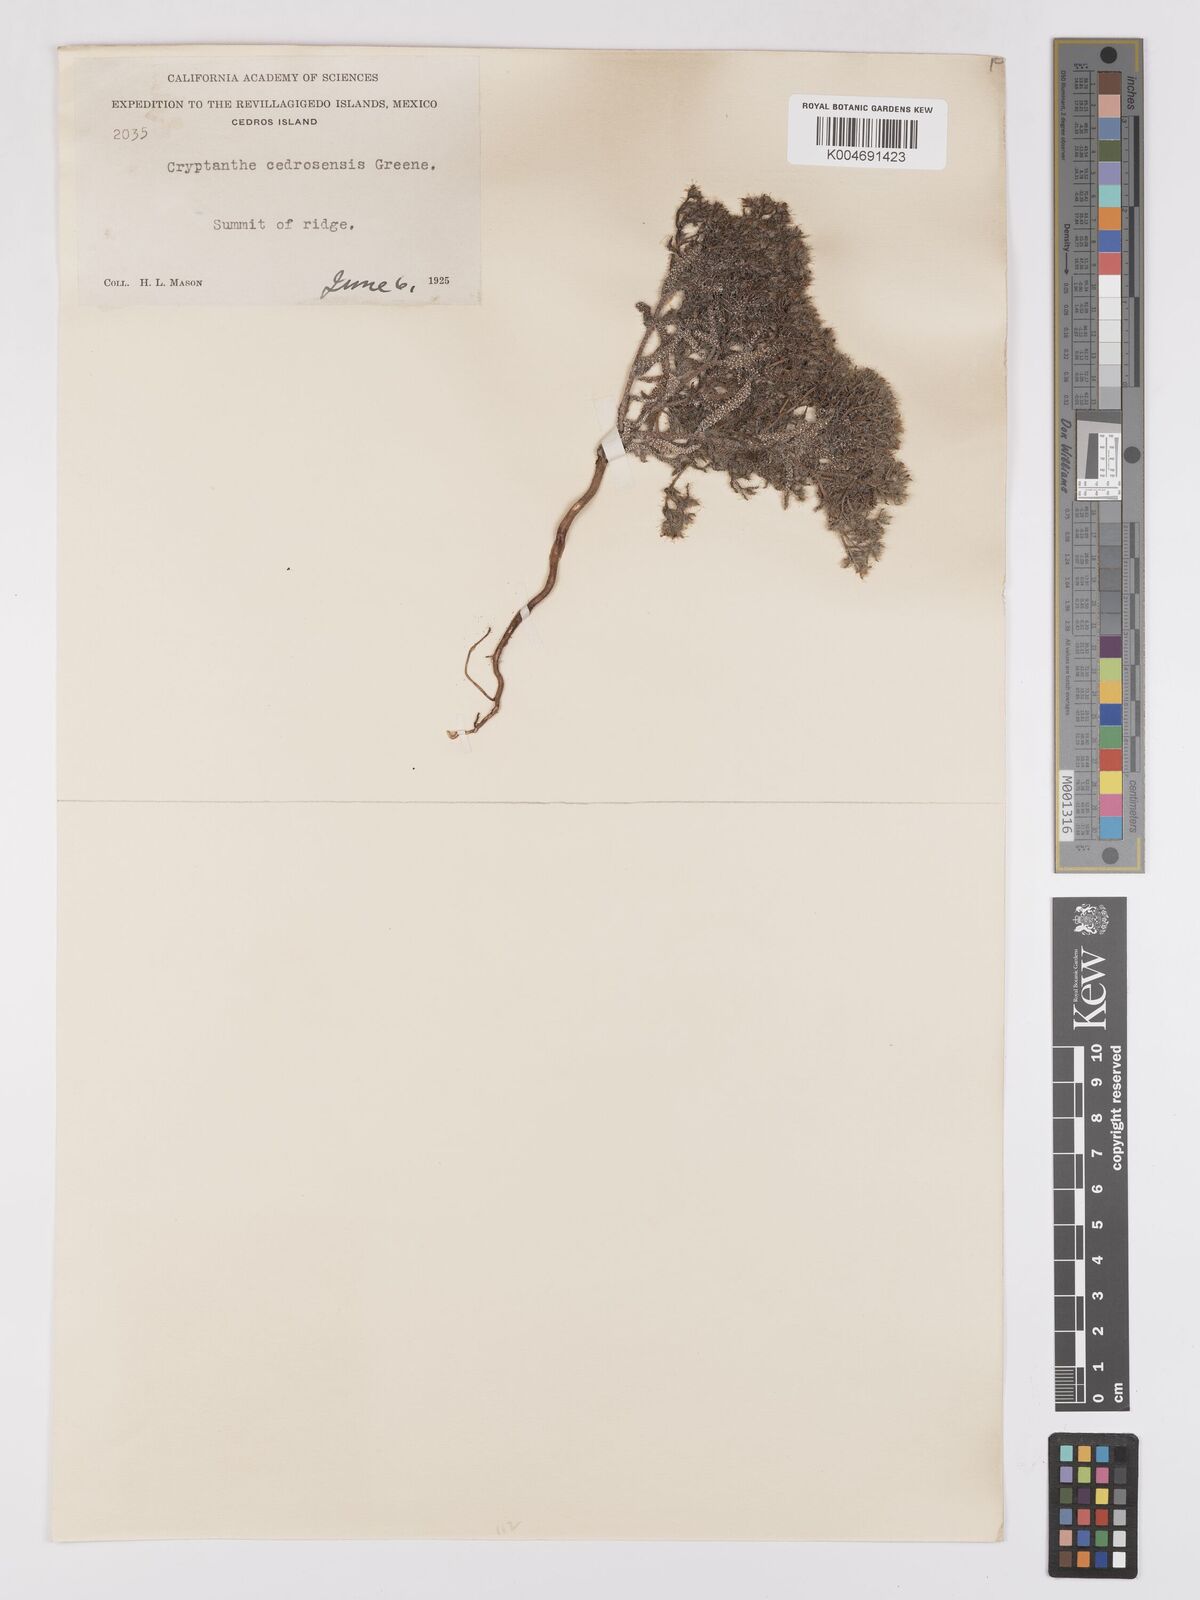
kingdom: Plantae
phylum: Tracheophyta
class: Magnoliopsida
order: Boraginales
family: Boraginaceae
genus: Cryptantha
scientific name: Cryptantha maritima
